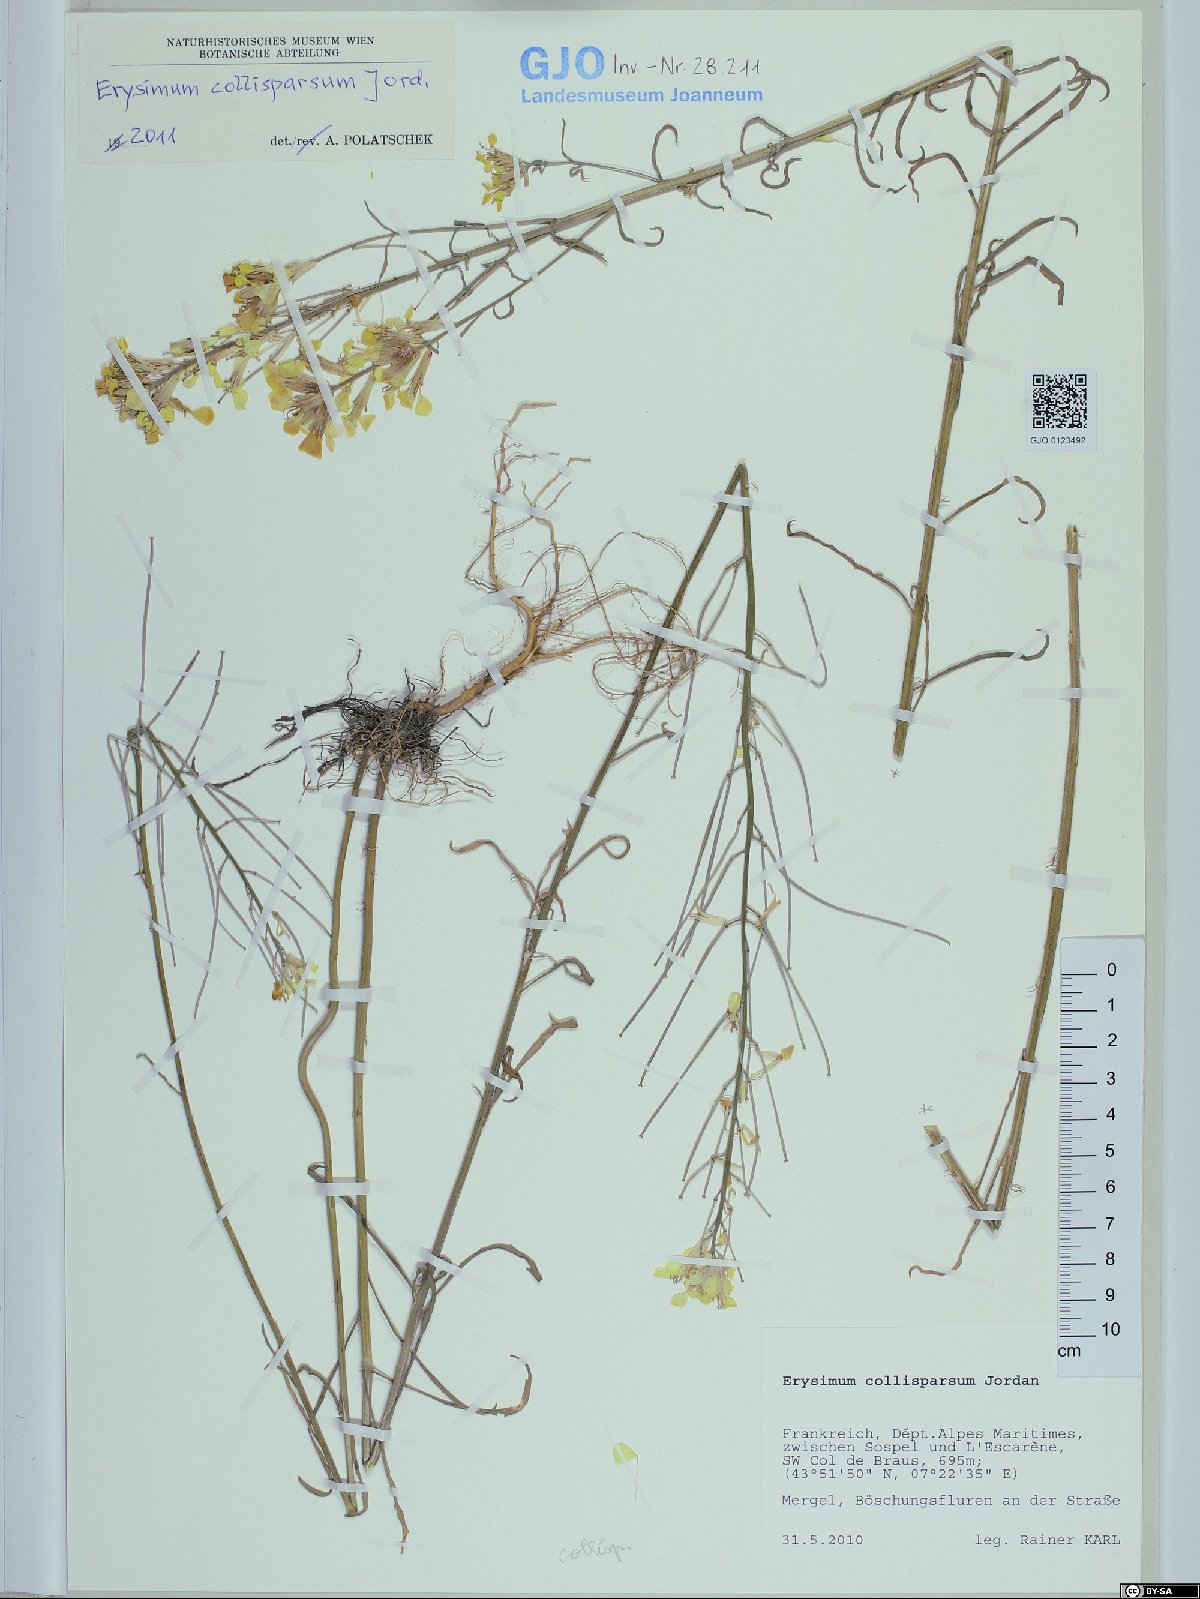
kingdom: Plantae
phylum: Tracheophyta
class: Magnoliopsida
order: Brassicales
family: Brassicaceae
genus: Erysimum
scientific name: Erysimum collisparsum
